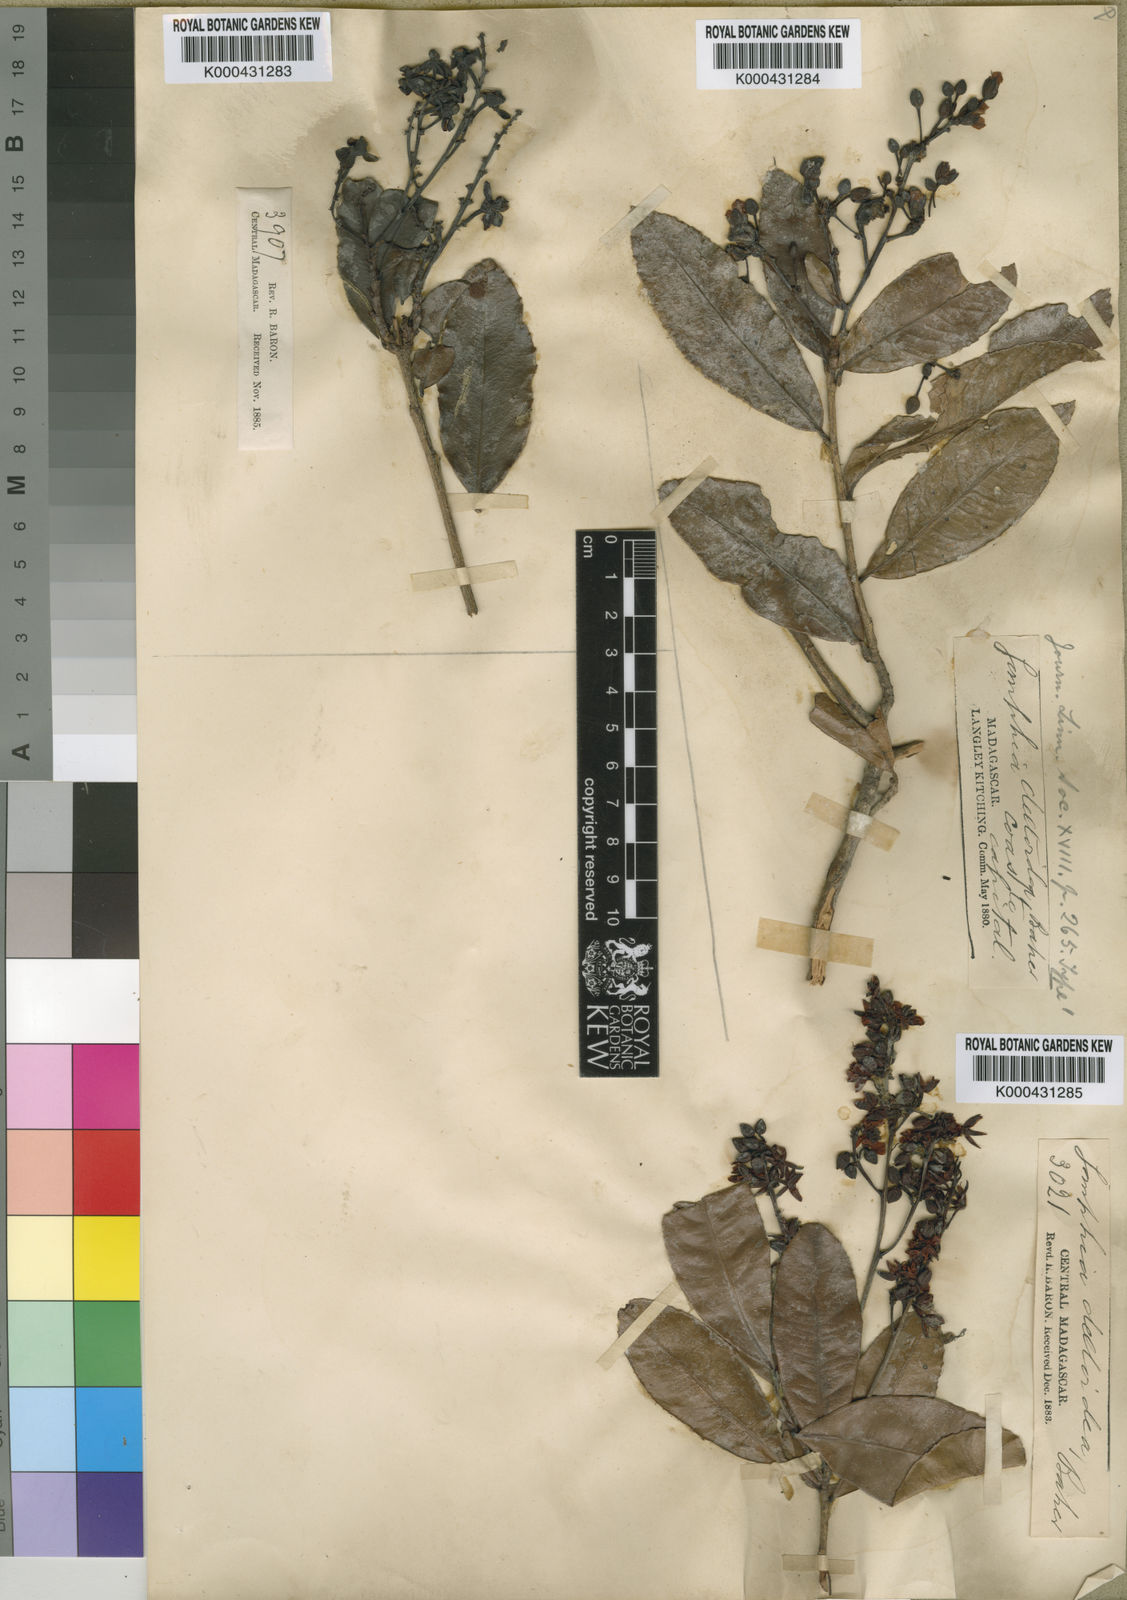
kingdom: Plantae
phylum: Tracheophyta
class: Magnoliopsida
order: Malpighiales
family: Ochnaceae
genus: Campylospermum
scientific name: Campylospermum deltoideum
